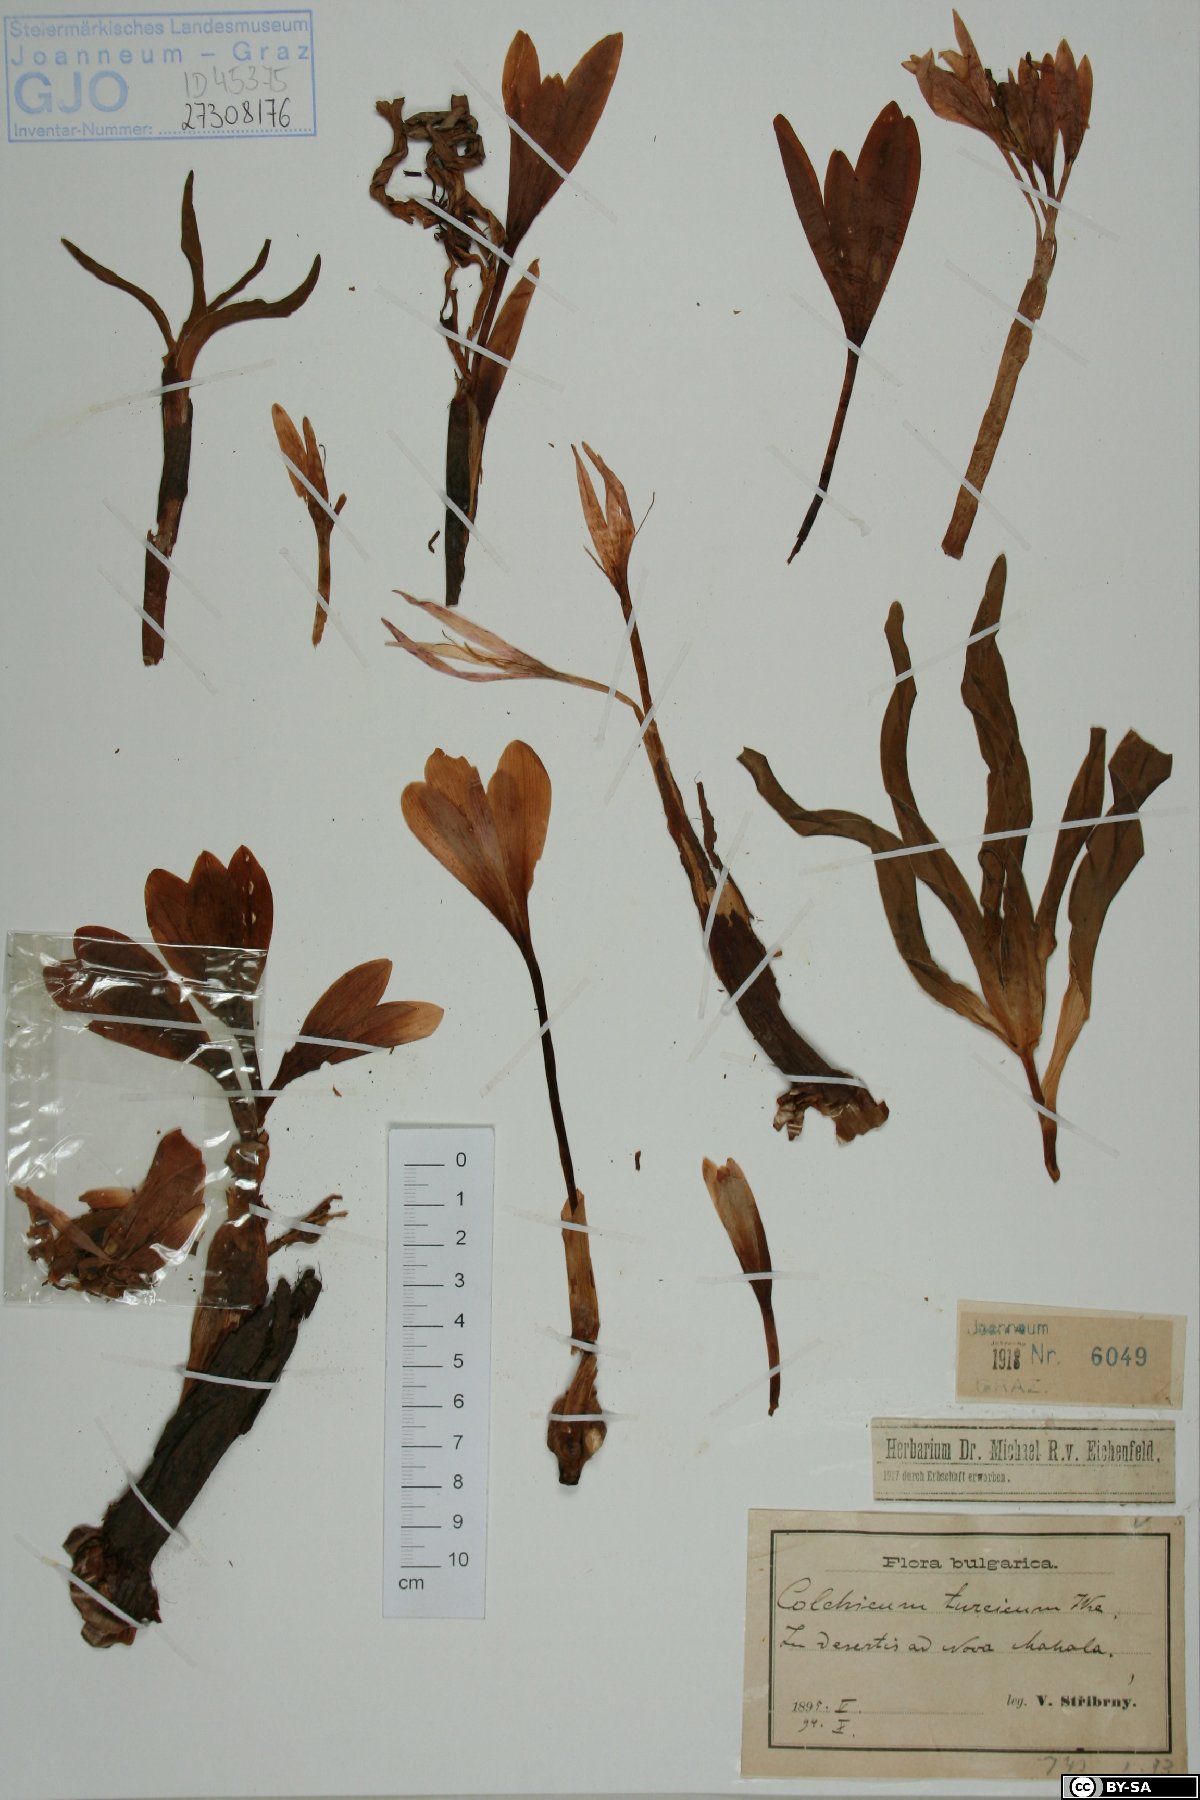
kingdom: Plantae
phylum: Tracheophyta
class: Liliopsida
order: Liliales
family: Colchicaceae
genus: Colchicum
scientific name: Colchicum turcicum
